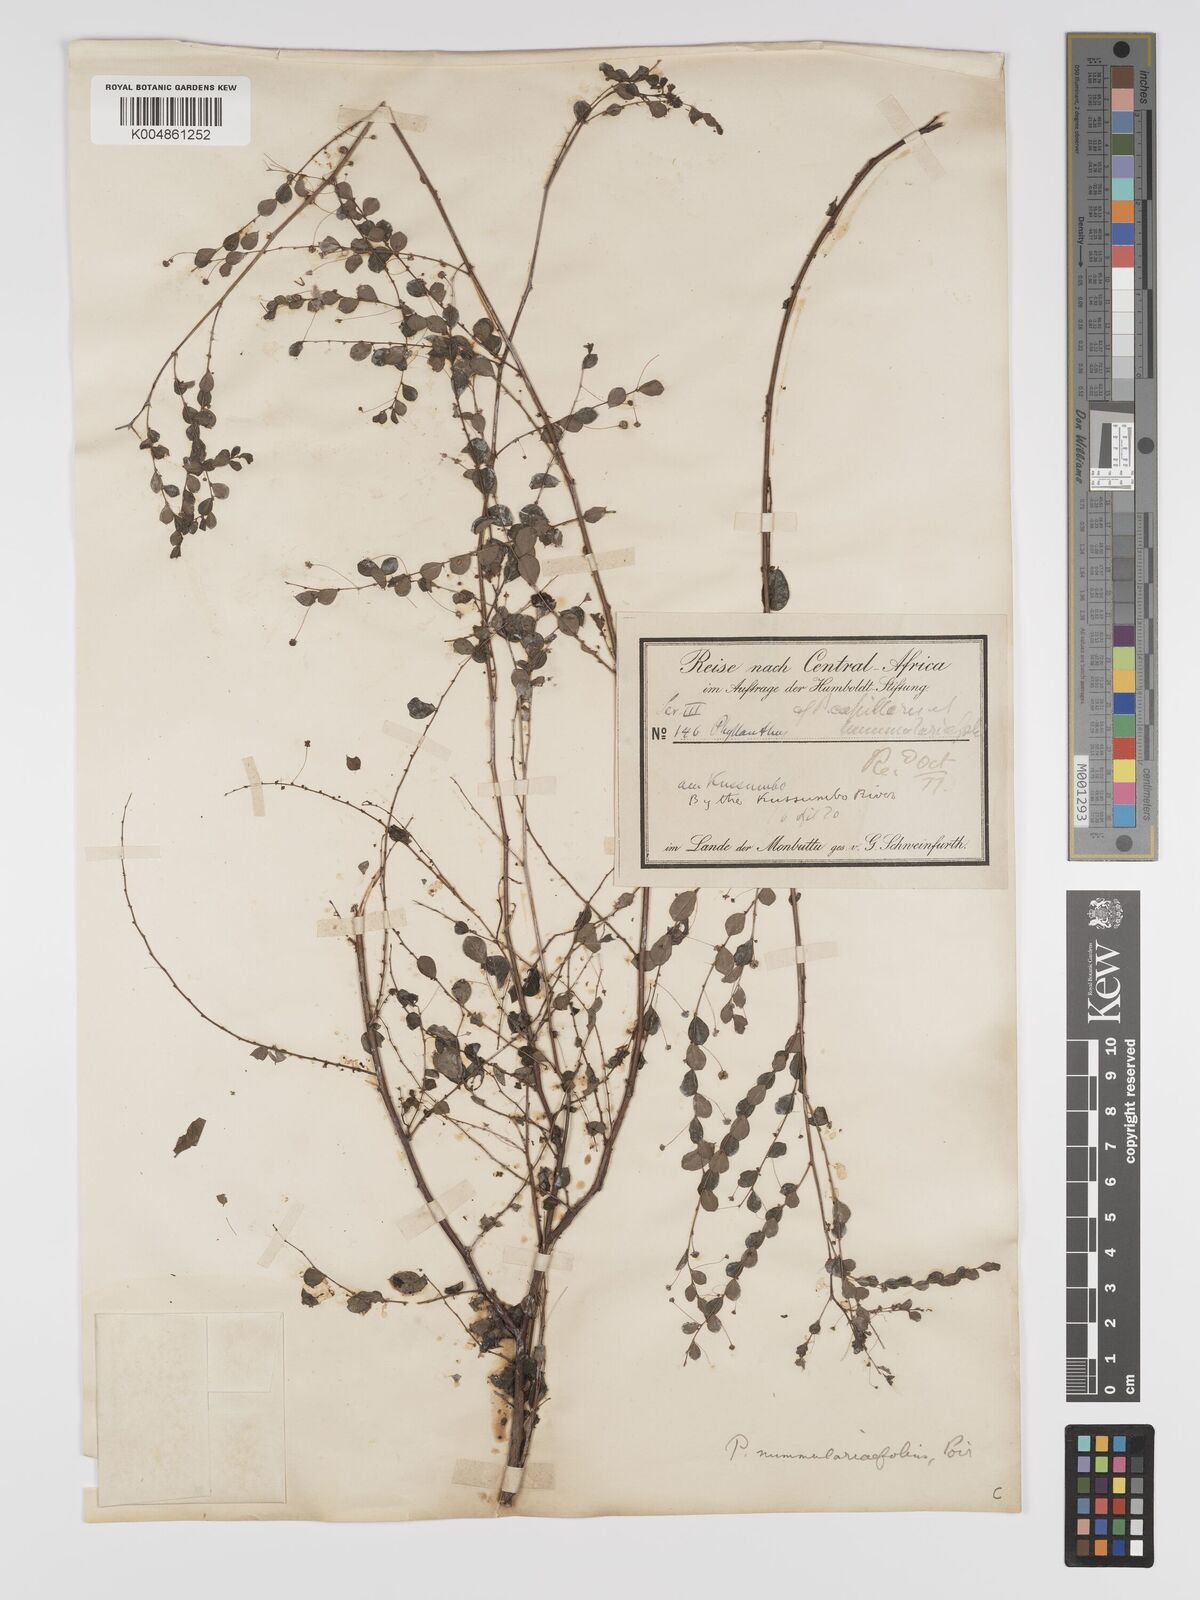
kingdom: Plantae
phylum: Tracheophyta
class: Magnoliopsida
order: Malpighiales
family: Phyllanthaceae
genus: Phyllanthus
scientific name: Phyllanthus nummulariifolius
